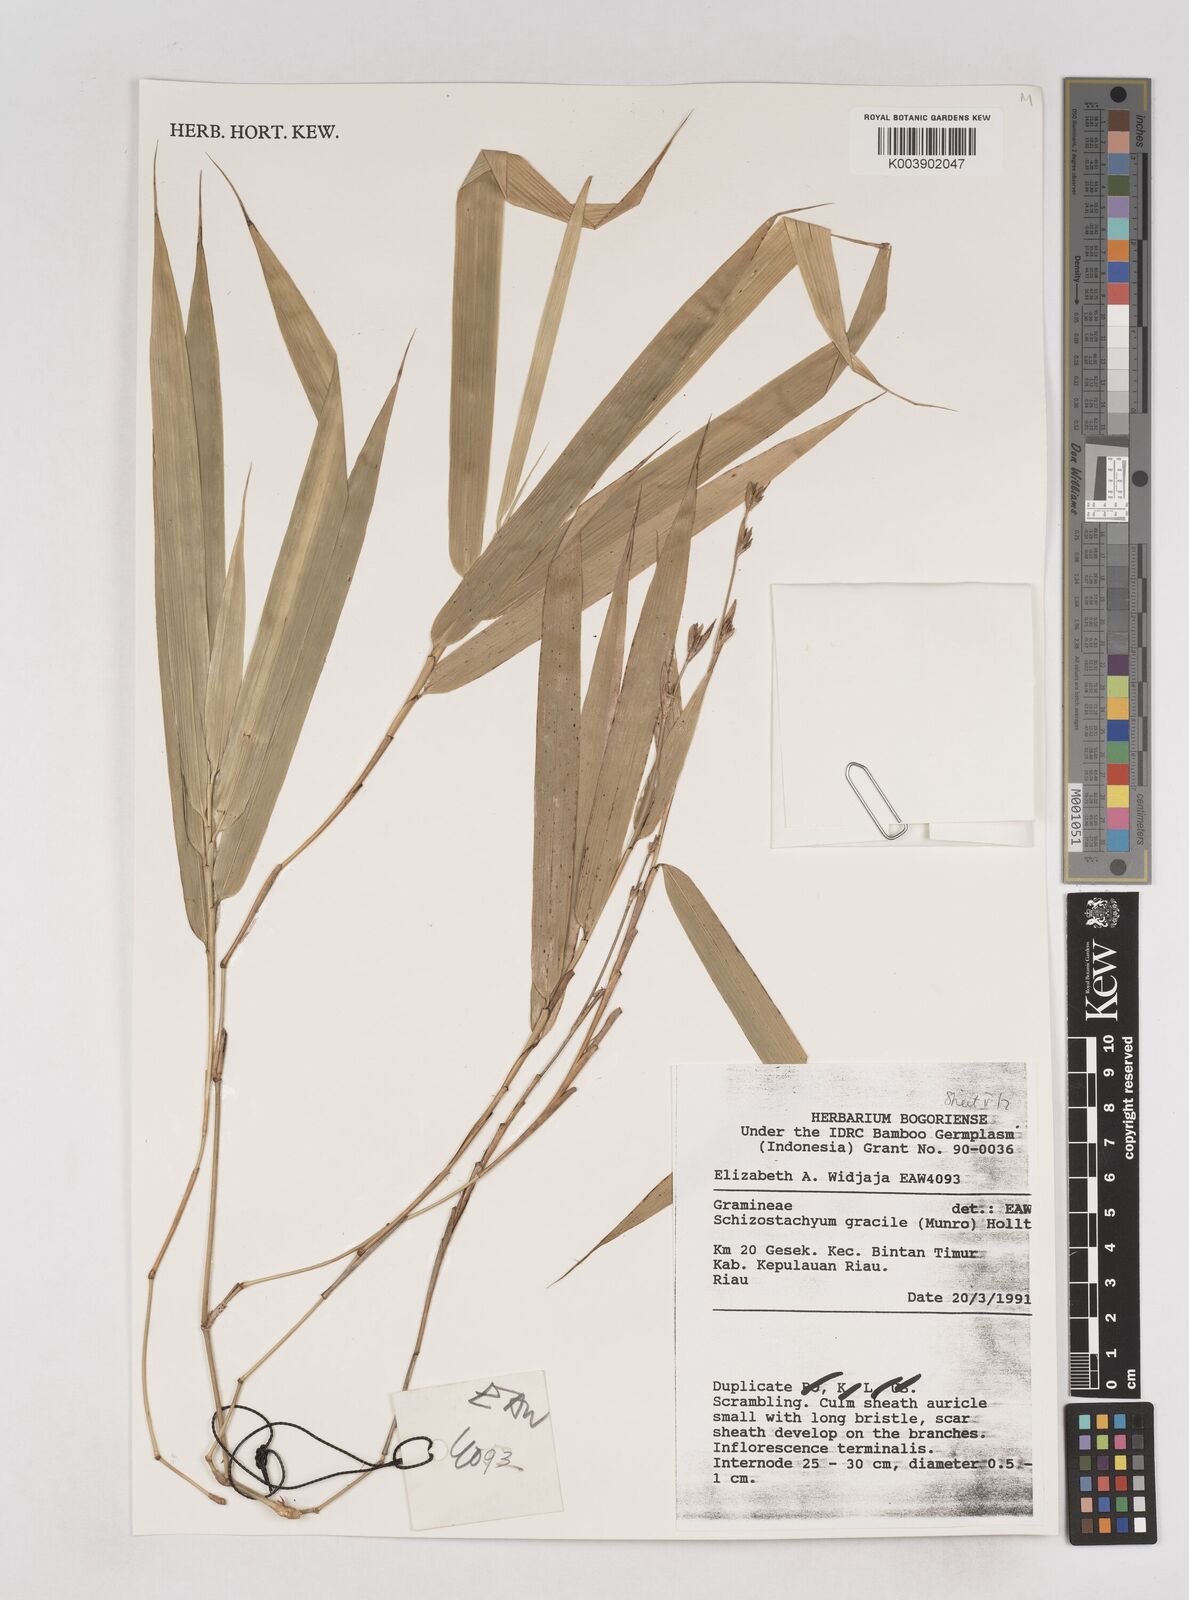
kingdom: Plantae
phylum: Tracheophyta
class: Liliopsida
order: Poales
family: Poaceae
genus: Schizostachyum
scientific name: Schizostachyum gracile
